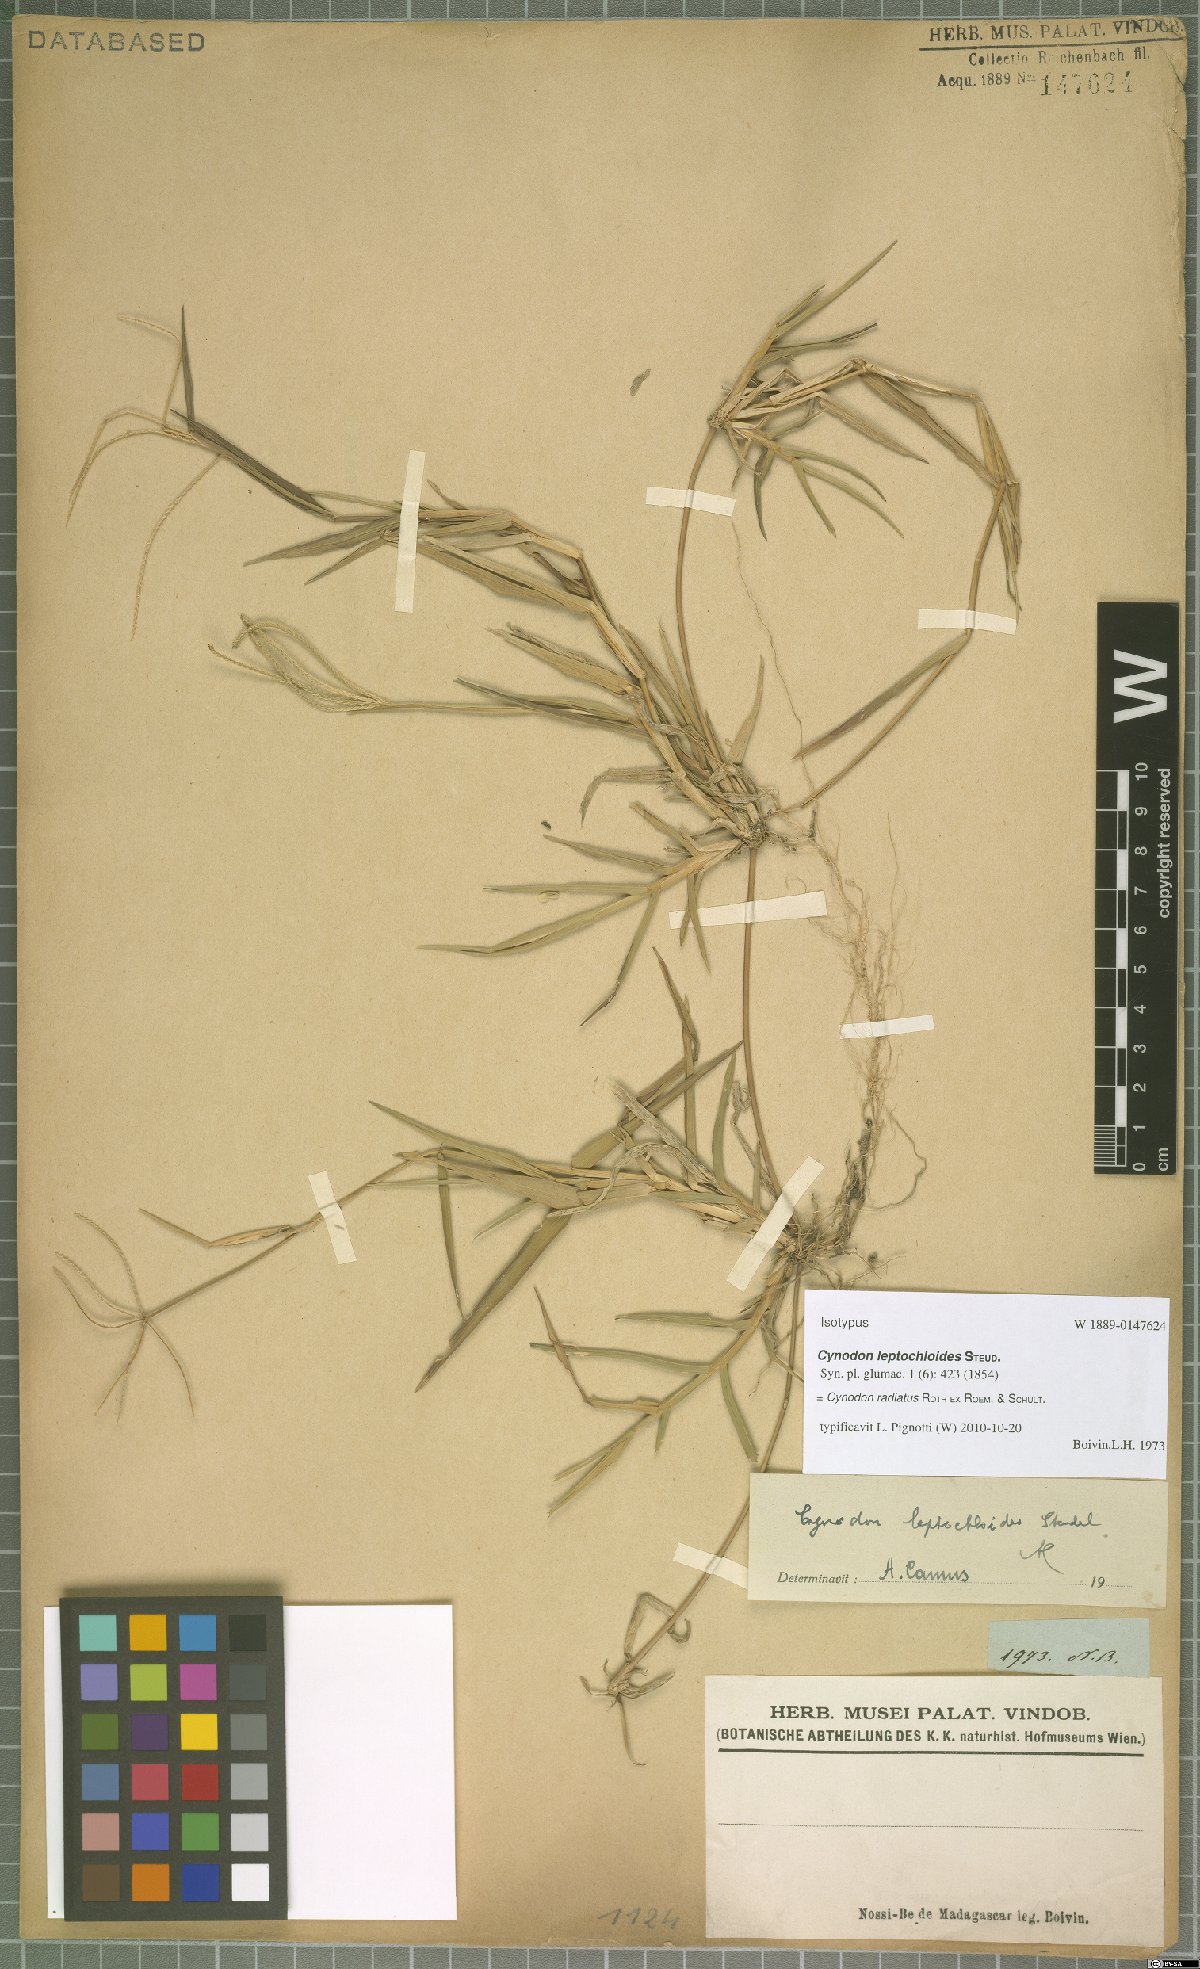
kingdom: Plantae
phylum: Tracheophyta
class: Liliopsida
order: Poales
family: Poaceae
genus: Cynodon
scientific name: Cynodon radiatus
